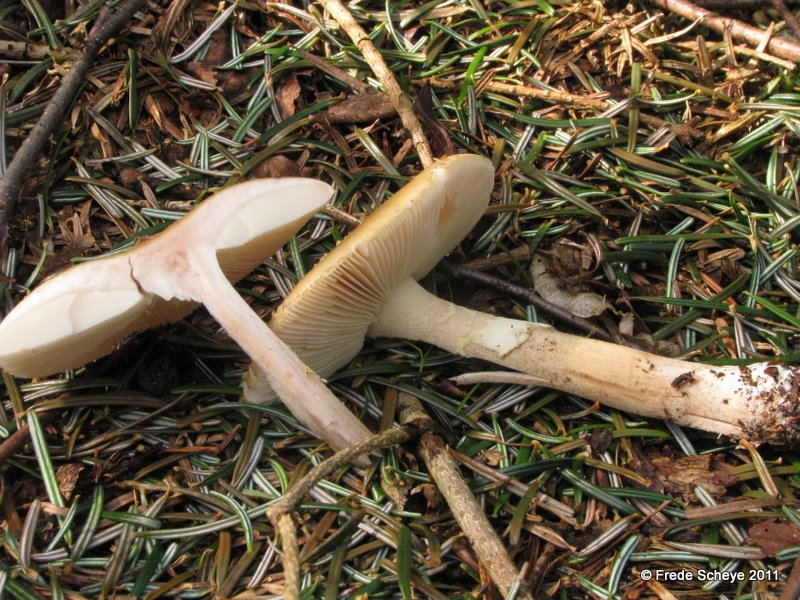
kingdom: Fungi
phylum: Basidiomycota
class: Agaricomycetes
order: Agaricales
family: Amanitaceae
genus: Amanita
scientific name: Amanita rubescens
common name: rødmende fluesvamp
